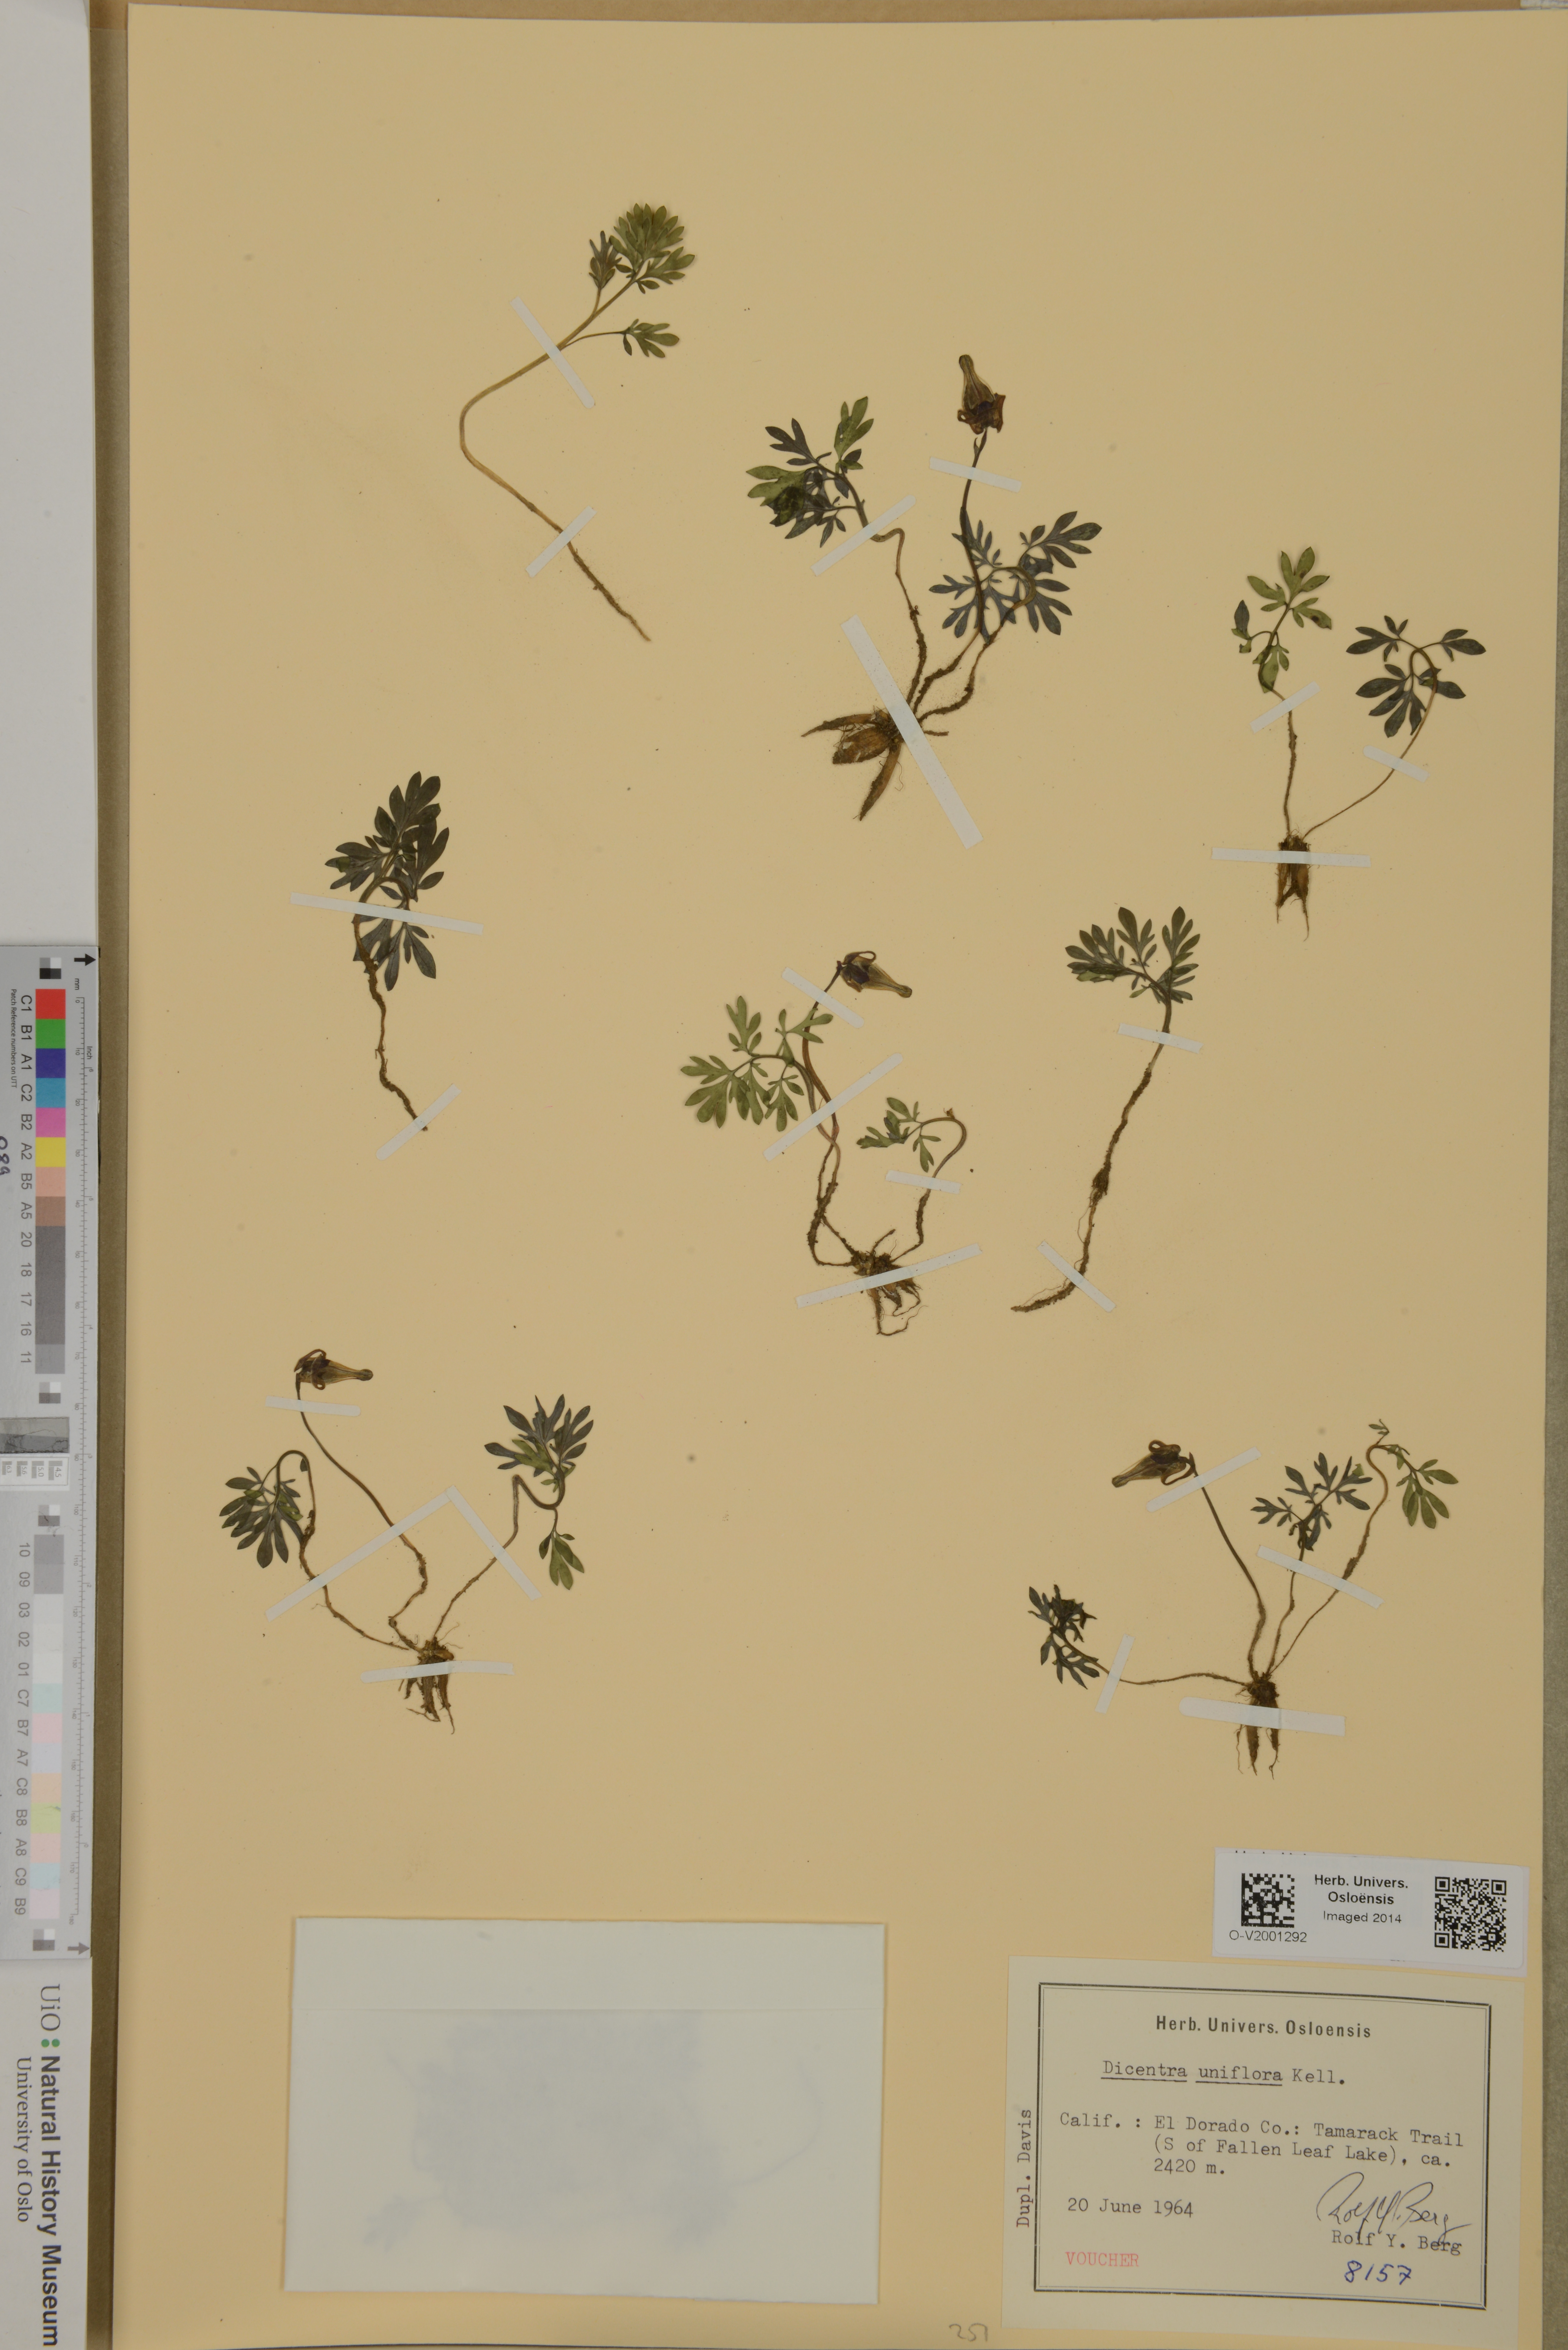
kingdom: Plantae
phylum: Tracheophyta
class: Magnoliopsida
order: Ranunculales
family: Papaveraceae
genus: Dicentra
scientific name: Dicentra uniflora
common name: Steer's-head
